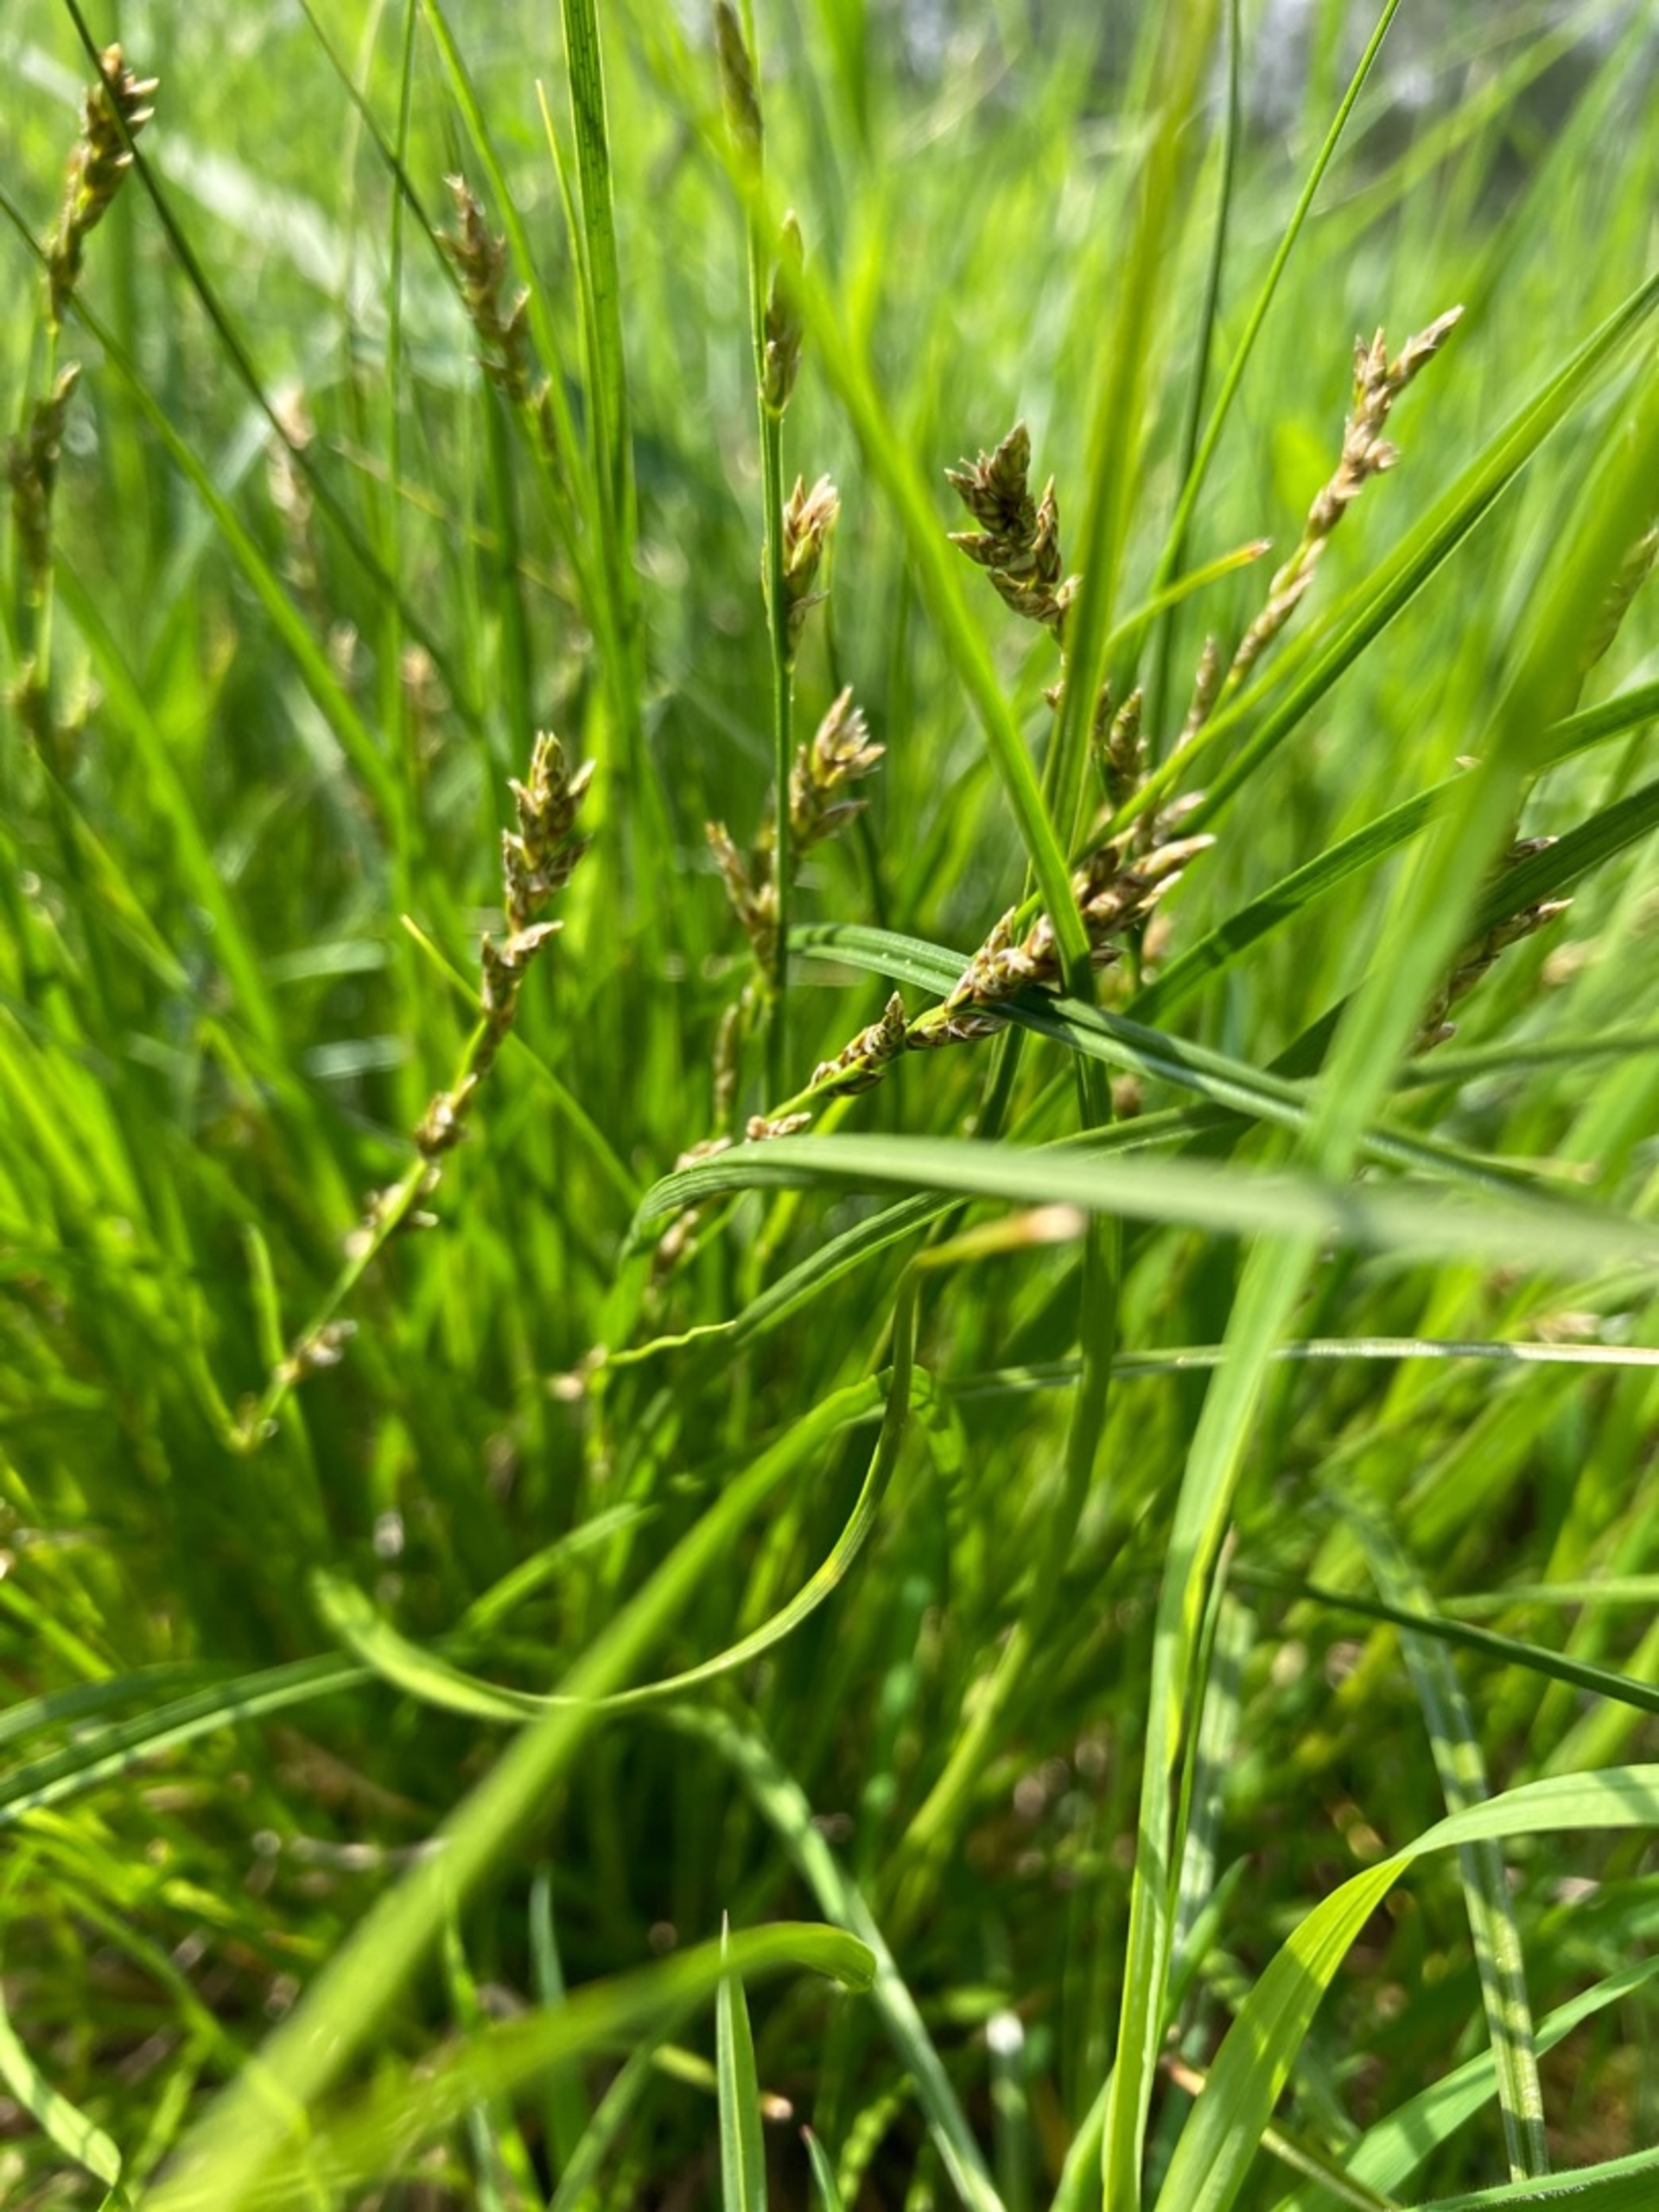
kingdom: Plantae
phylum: Tracheophyta
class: Liliopsida
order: Poales
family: Cyperaceae
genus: Carex
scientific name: Carex divulsa
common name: Mellembrudt star
